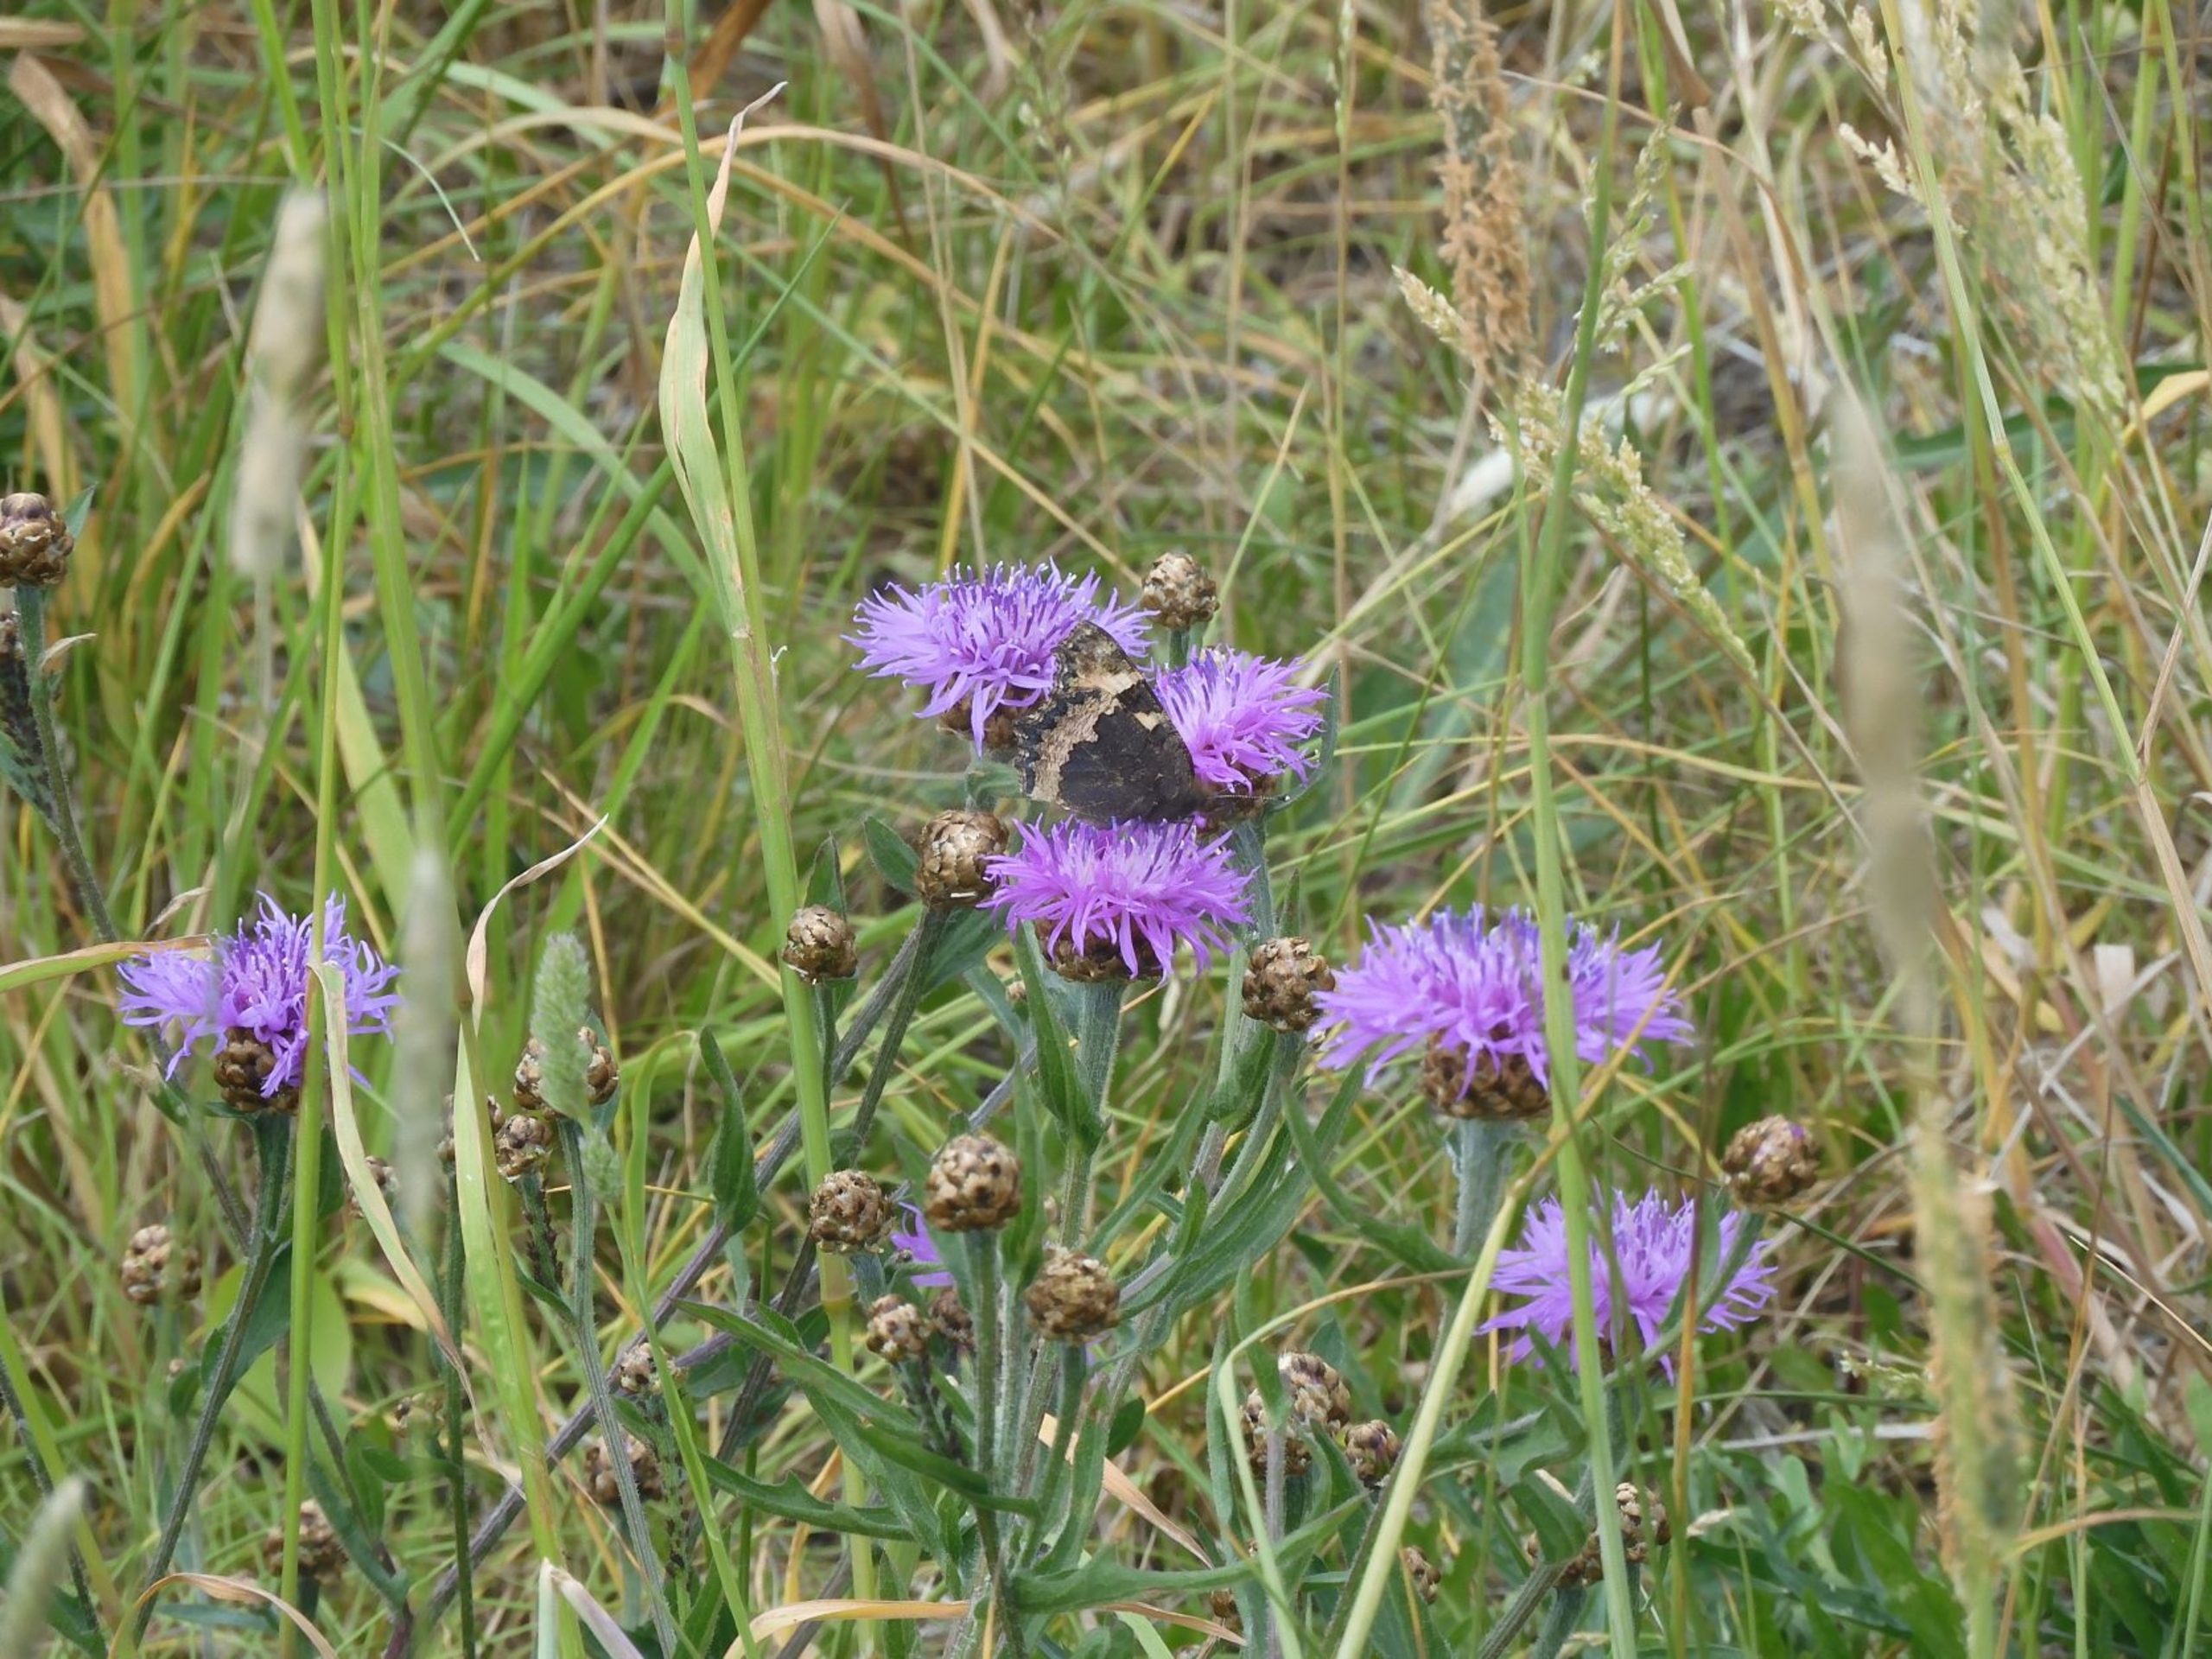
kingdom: Plantae
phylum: Tracheophyta
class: Magnoliopsida
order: Asterales
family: Asteraceae
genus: Centaurea
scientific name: Centaurea jacea
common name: Almindelig knopurt
